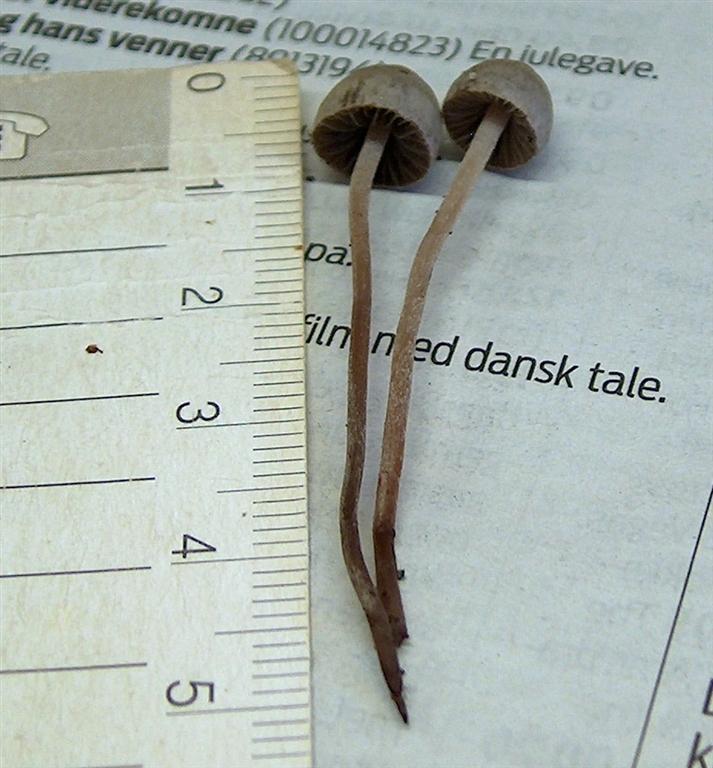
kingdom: Fungi
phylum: Basidiomycota
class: Agaricomycetes
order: Agaricales
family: Bolbitiaceae
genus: Panaeolina
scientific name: Panaeolina foenisecii
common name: høslætsvamp
